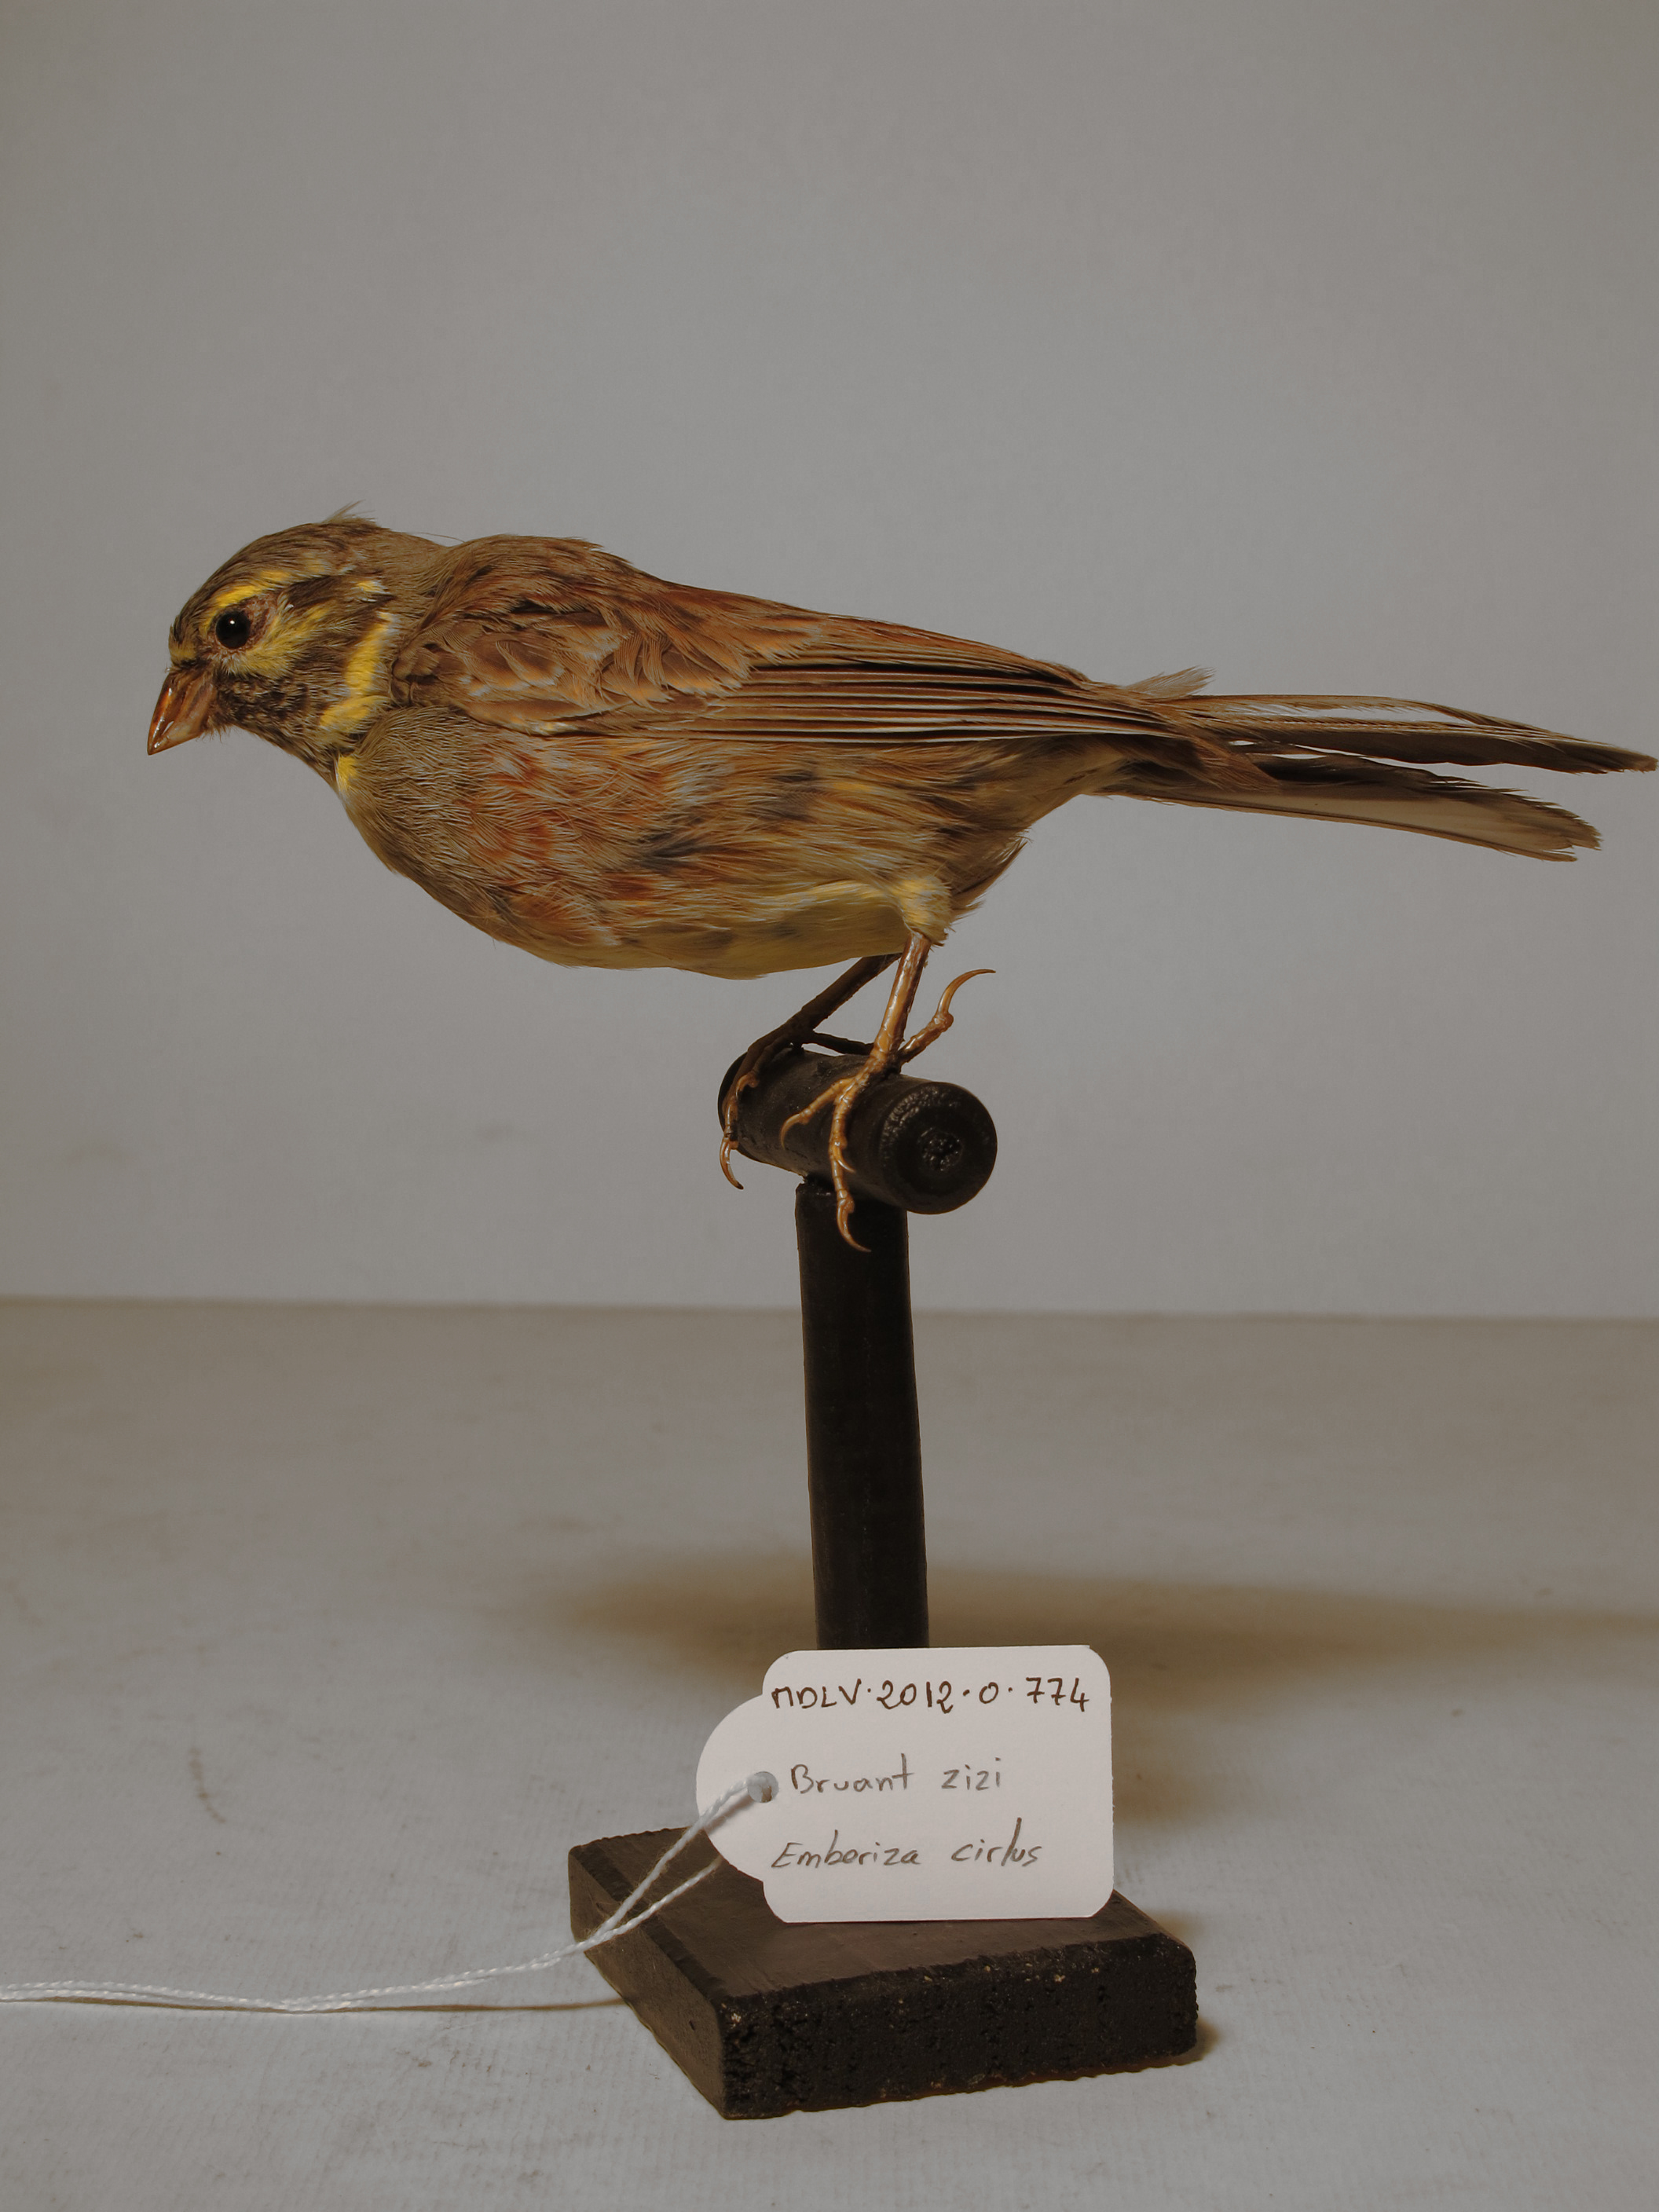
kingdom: Animalia
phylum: Chordata
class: Aves
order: Passeriformes
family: Emberizidae
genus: Emberiza
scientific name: Emberiza cirlus
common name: Cirl Bunting
